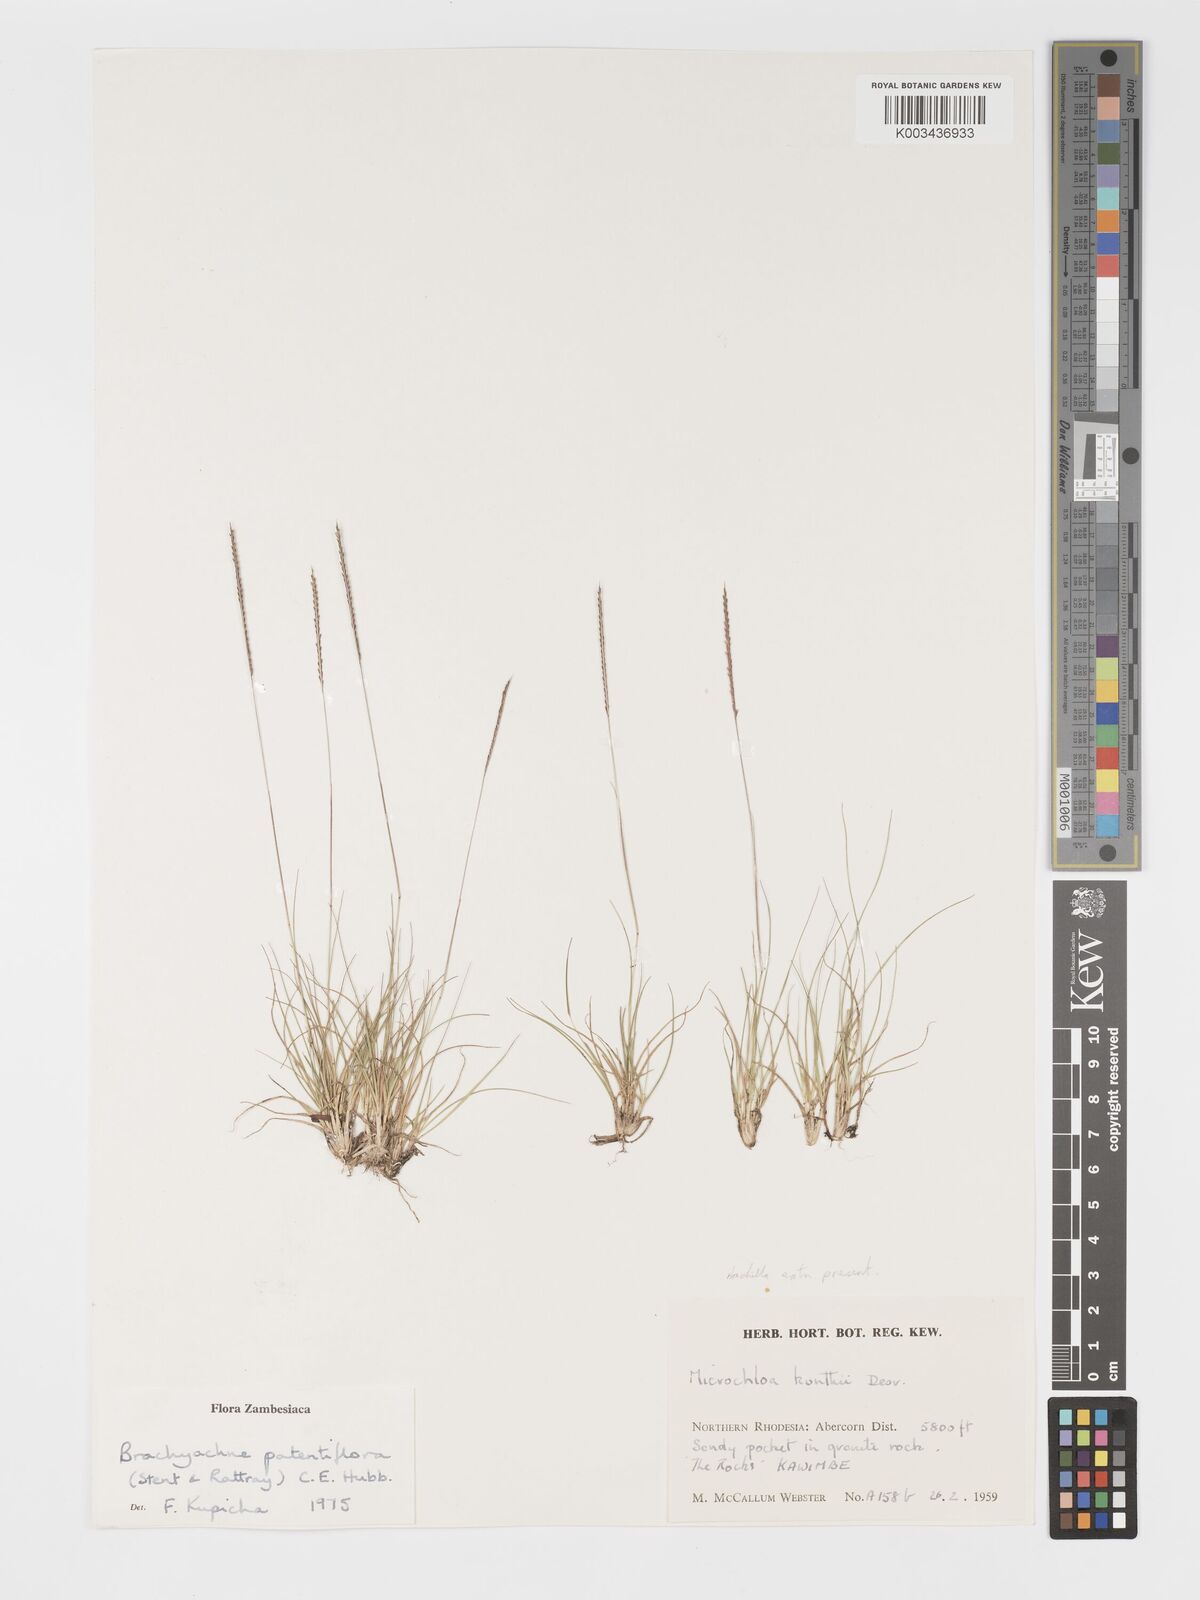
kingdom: Plantae
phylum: Tracheophyta
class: Liliopsida
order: Poales
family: Poaceae
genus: Micrachne
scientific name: Micrachne patentiflora
